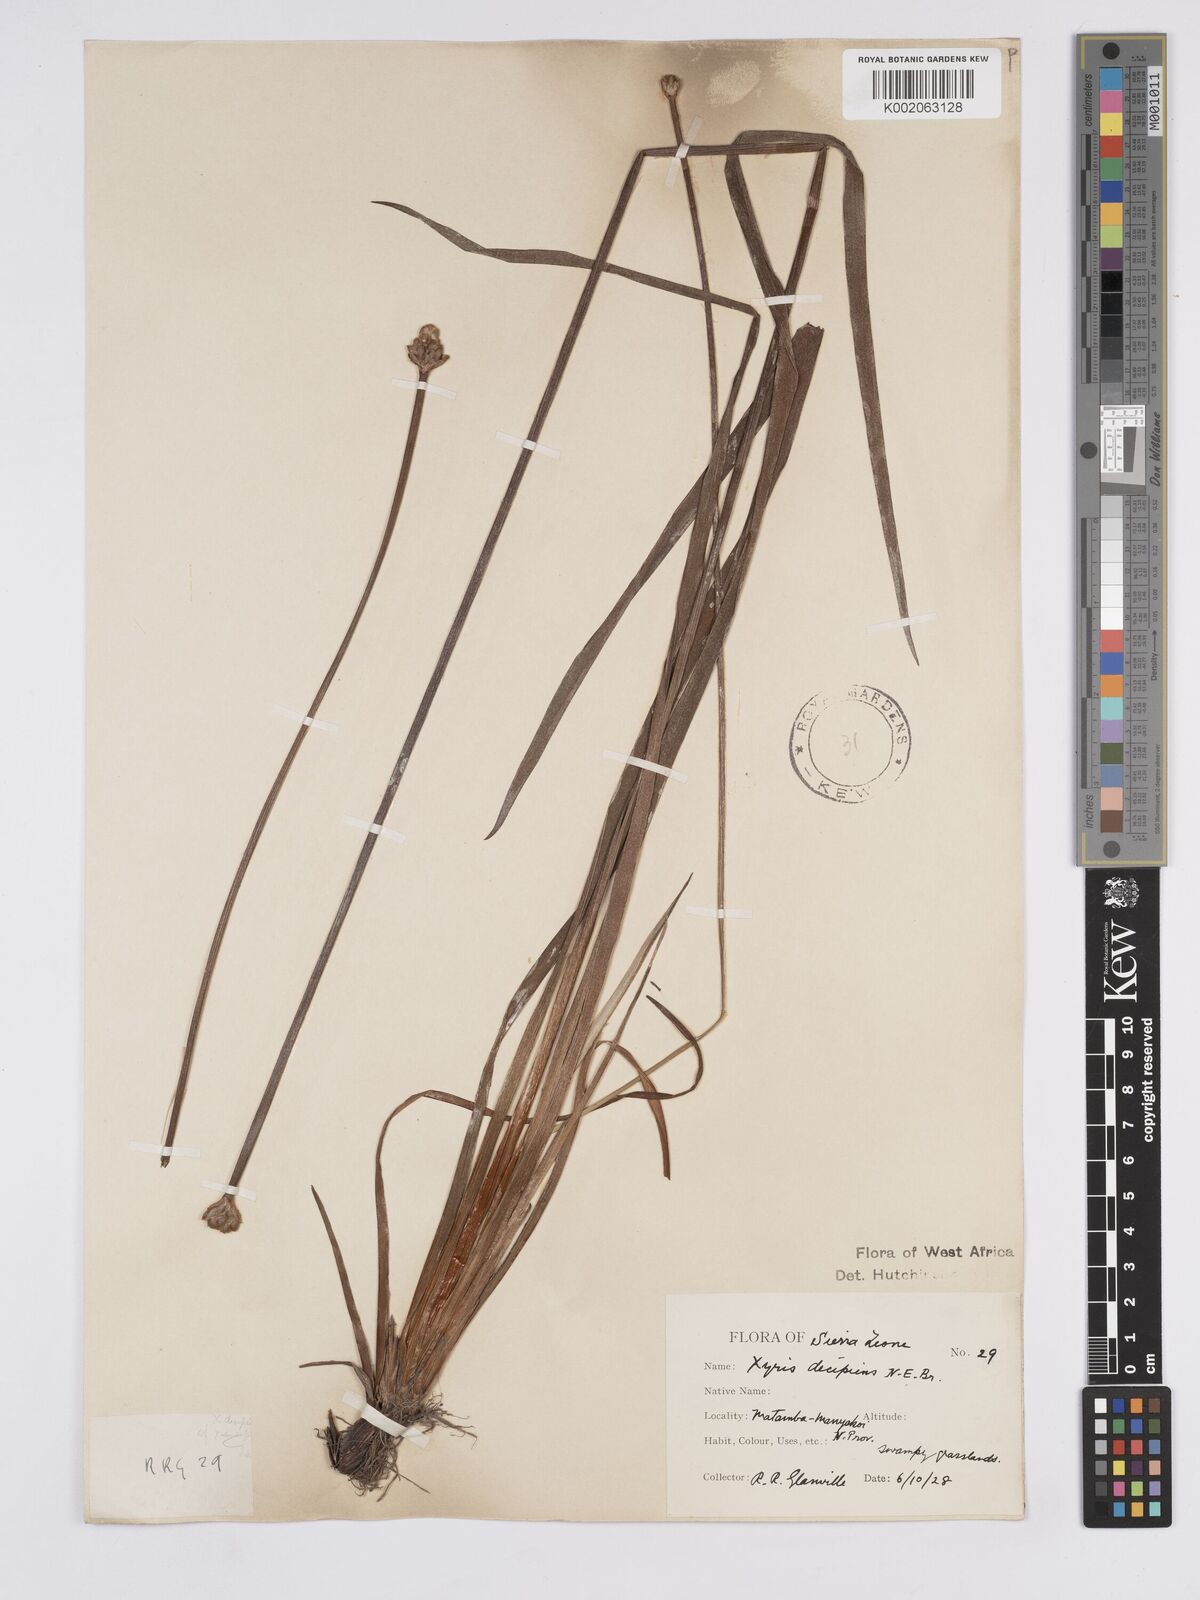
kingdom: Plantae
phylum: Tracheophyta
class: Liliopsida
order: Poales
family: Xyridaceae
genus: Xyris
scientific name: Xyris decipiens
